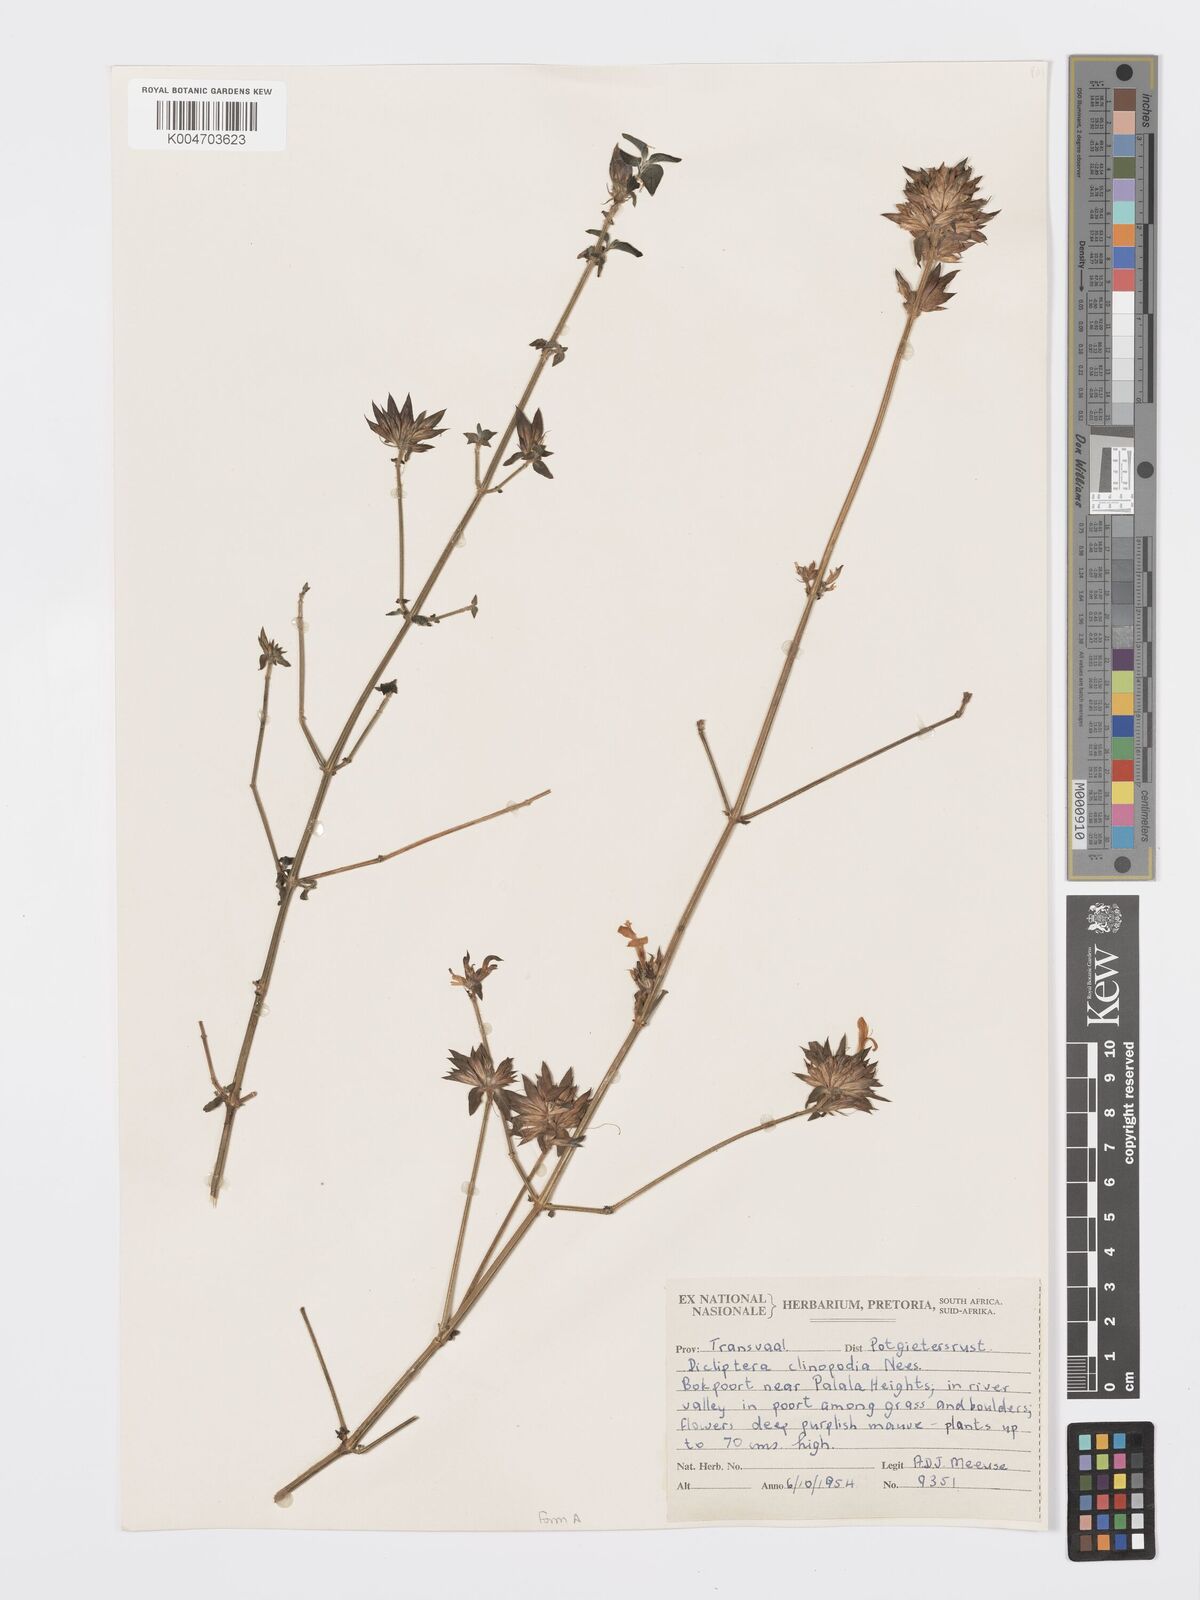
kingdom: Plantae
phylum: Tracheophyta
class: Magnoliopsida
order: Lamiales
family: Acanthaceae
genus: Dicliptera
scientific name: Dicliptera clinopodia
